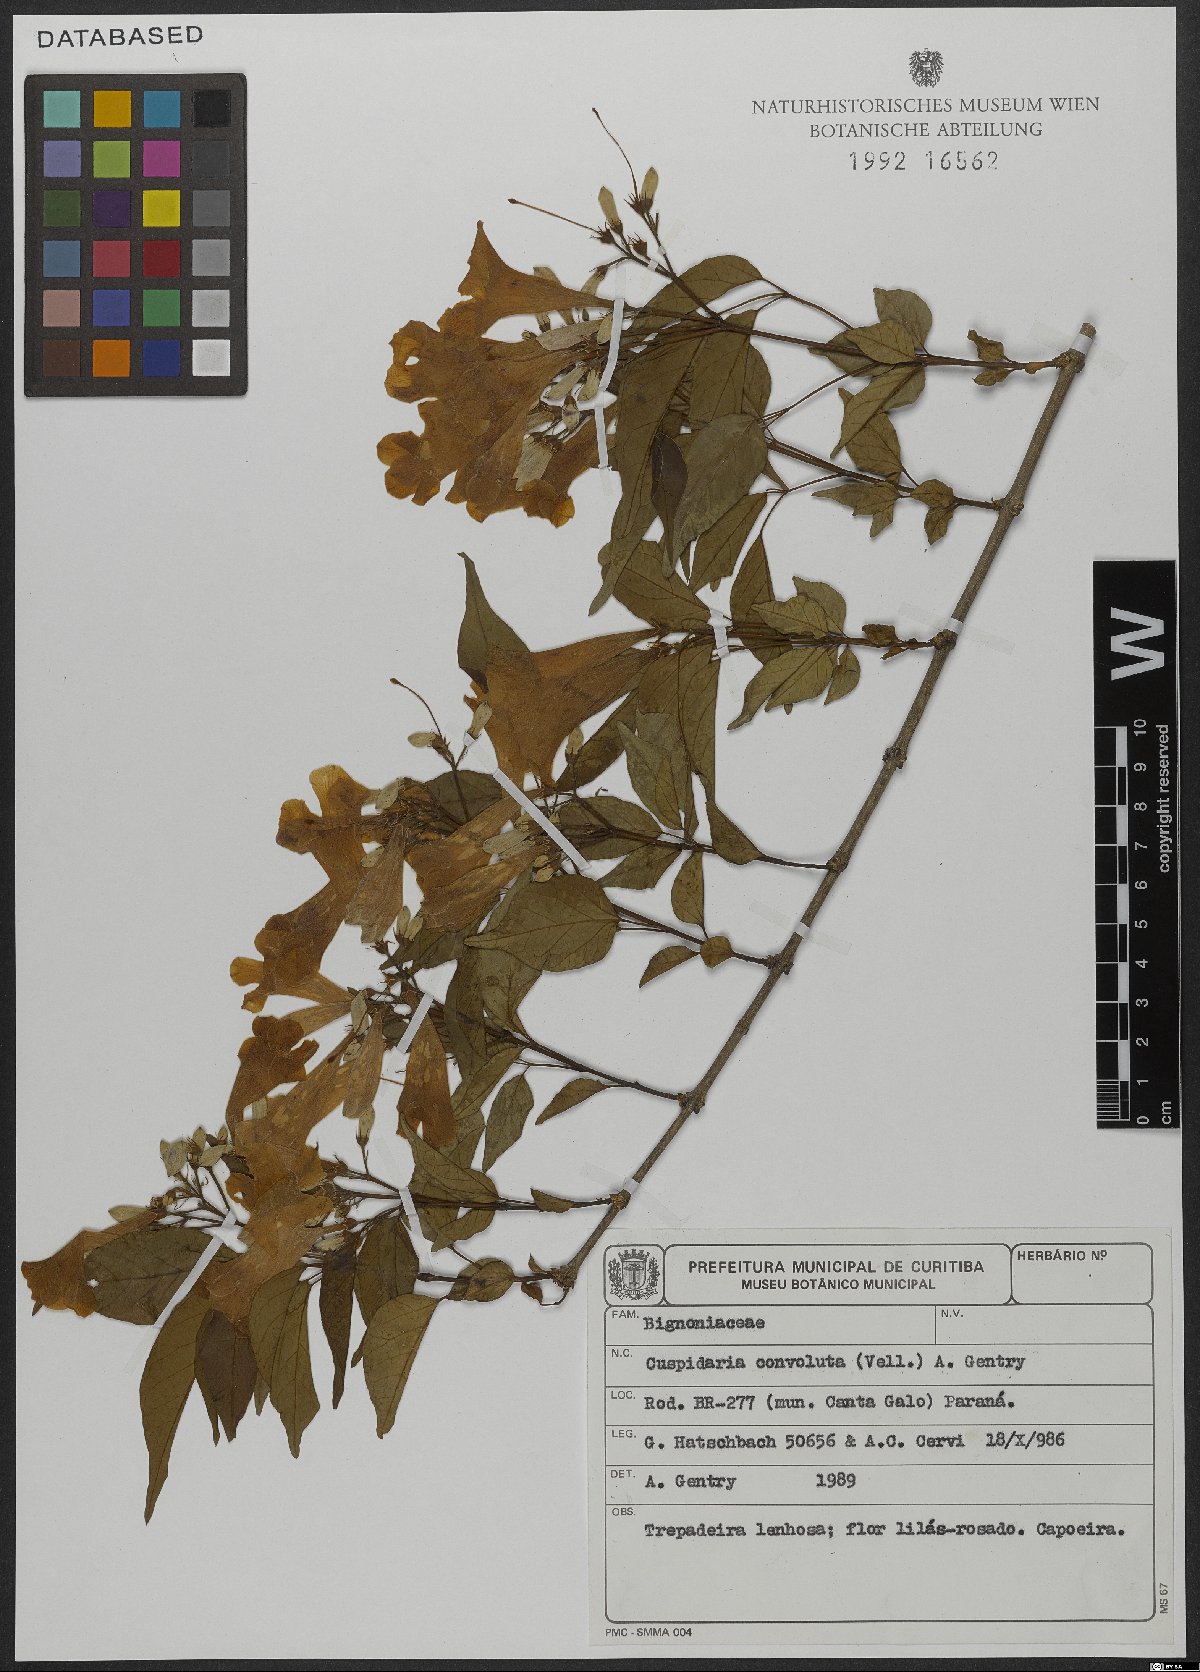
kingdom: Plantae
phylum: Tracheophyta
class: Magnoliopsida
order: Lamiales
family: Bignoniaceae
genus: Cuspidaria
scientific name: Cuspidaria convoluta
